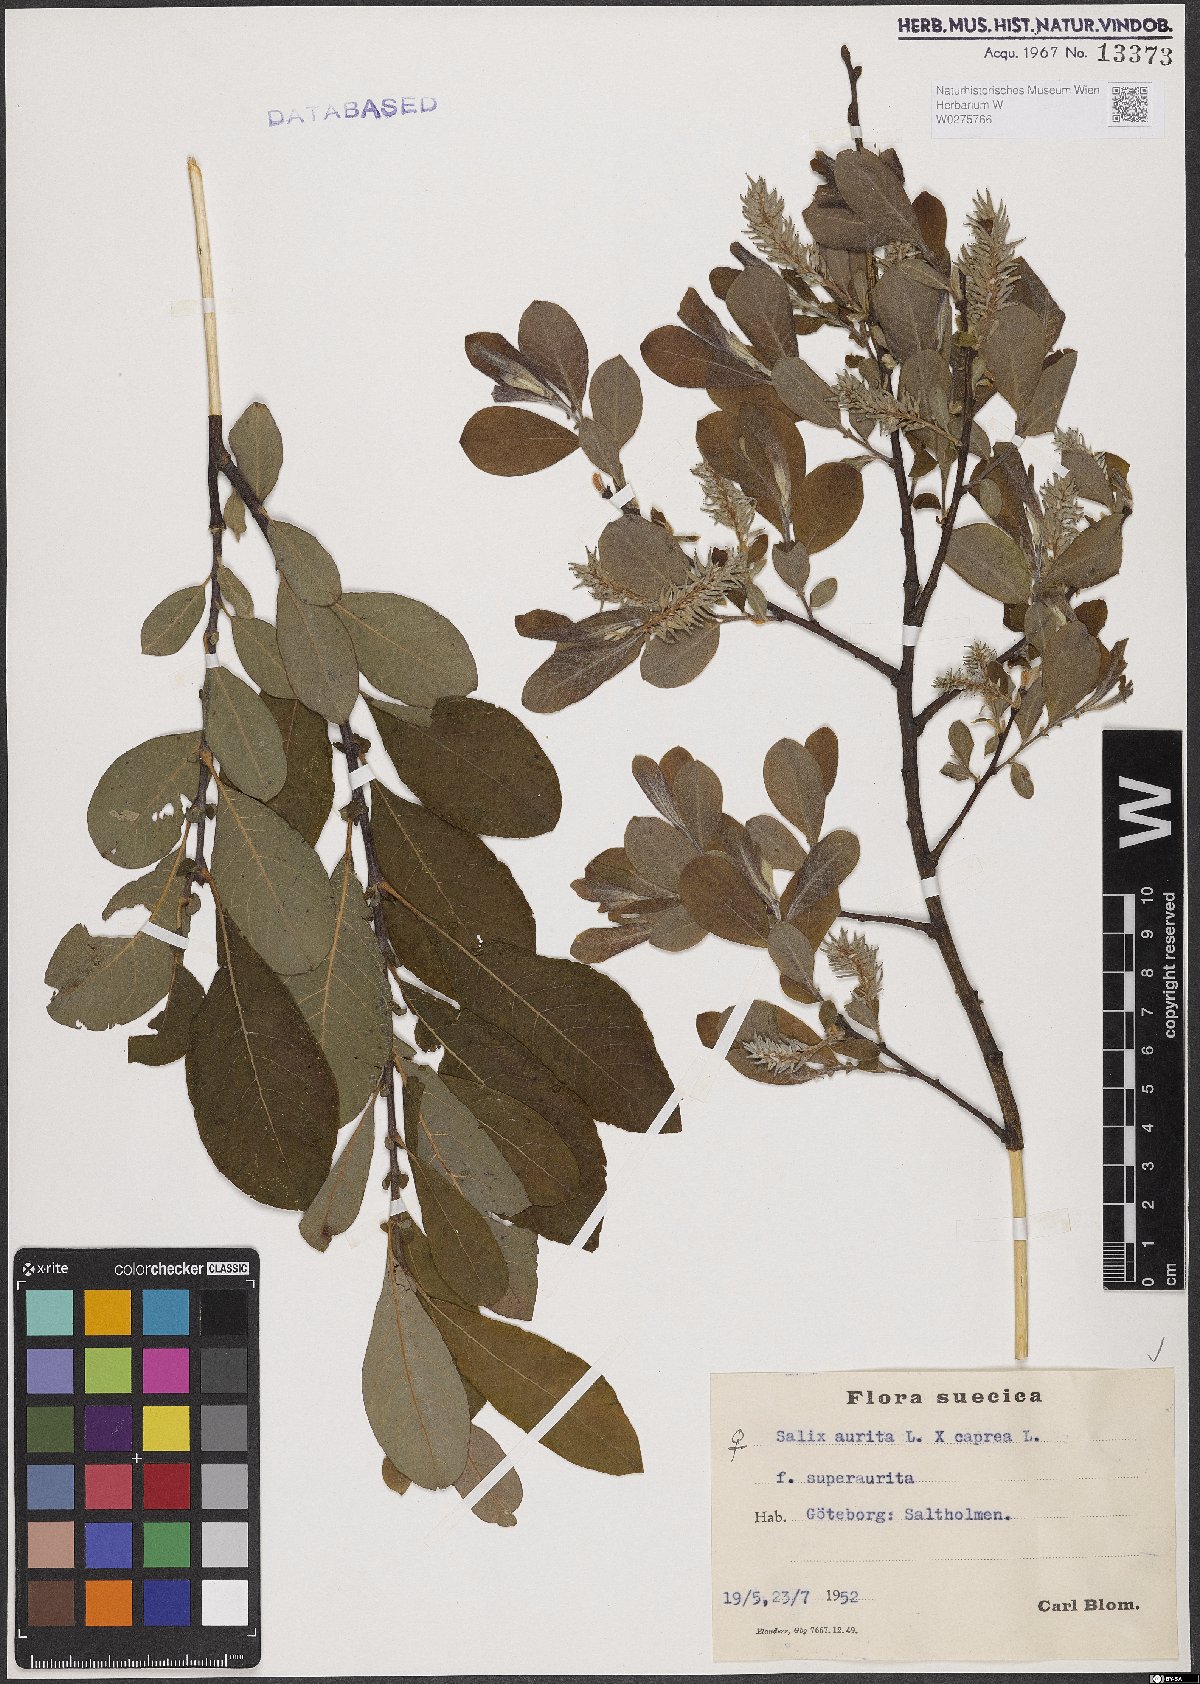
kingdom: Plantae
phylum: Tracheophyta
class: Magnoliopsida
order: Malpighiales
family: Salicaceae
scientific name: Salicaceae
